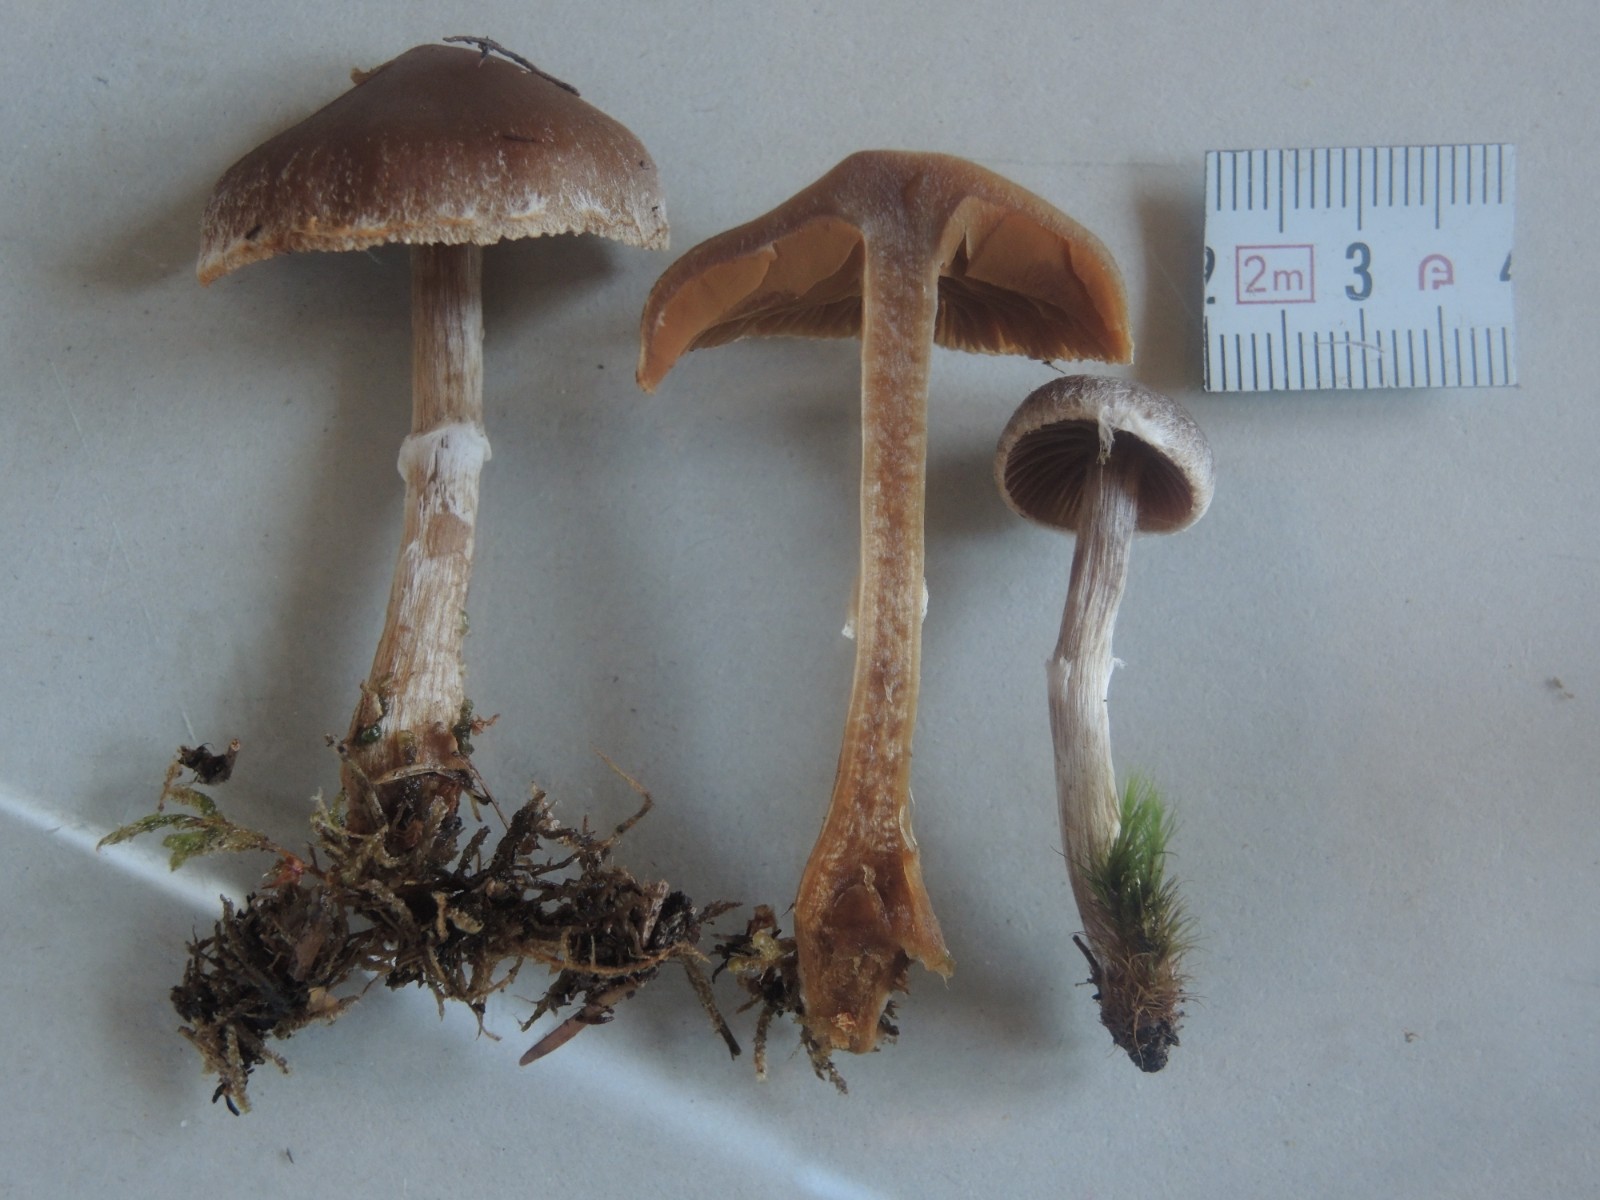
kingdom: Fungi
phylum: Basidiomycota
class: Agaricomycetes
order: Agaricales
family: Cortinariaceae
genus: Cortinarius
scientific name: Cortinarius lindstroemii
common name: Håkons slørhat
